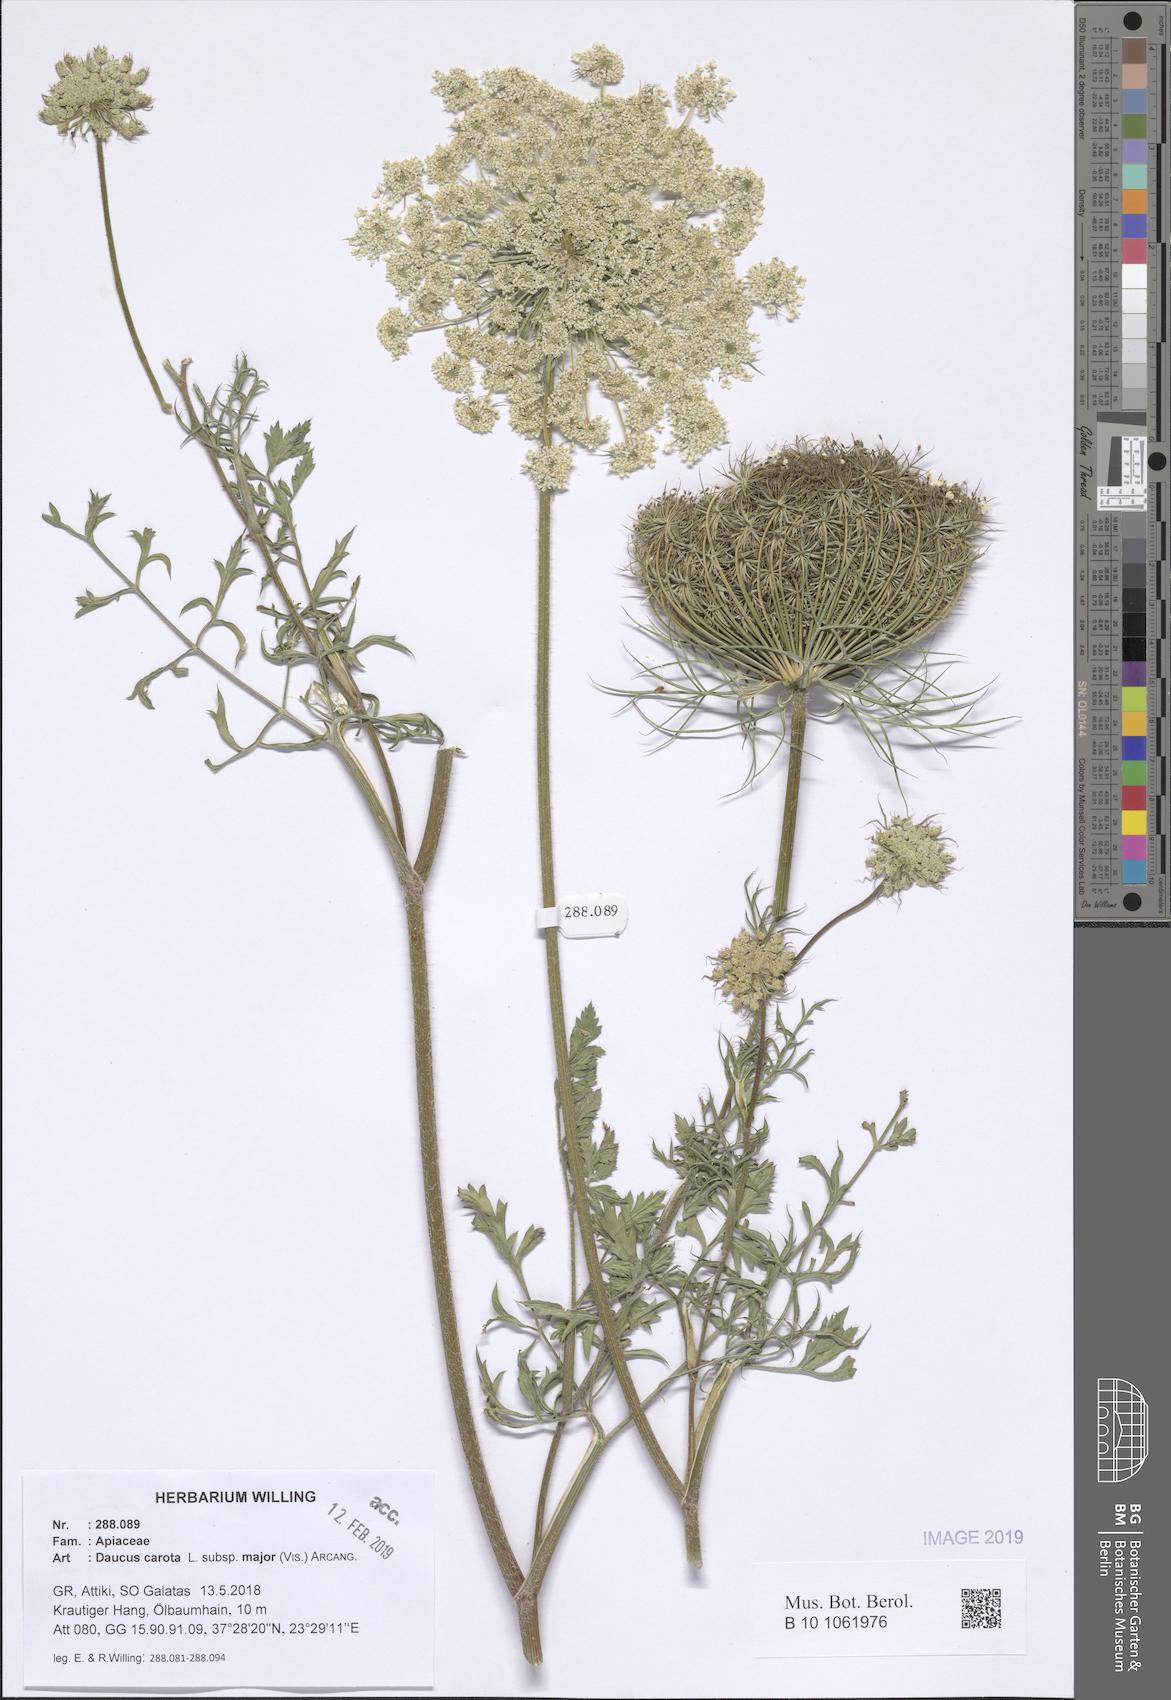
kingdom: Plantae
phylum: Tracheophyta
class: Magnoliopsida
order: Apiales
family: Apiaceae
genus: Daucus
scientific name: Daucus carota
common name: Wild carrot
